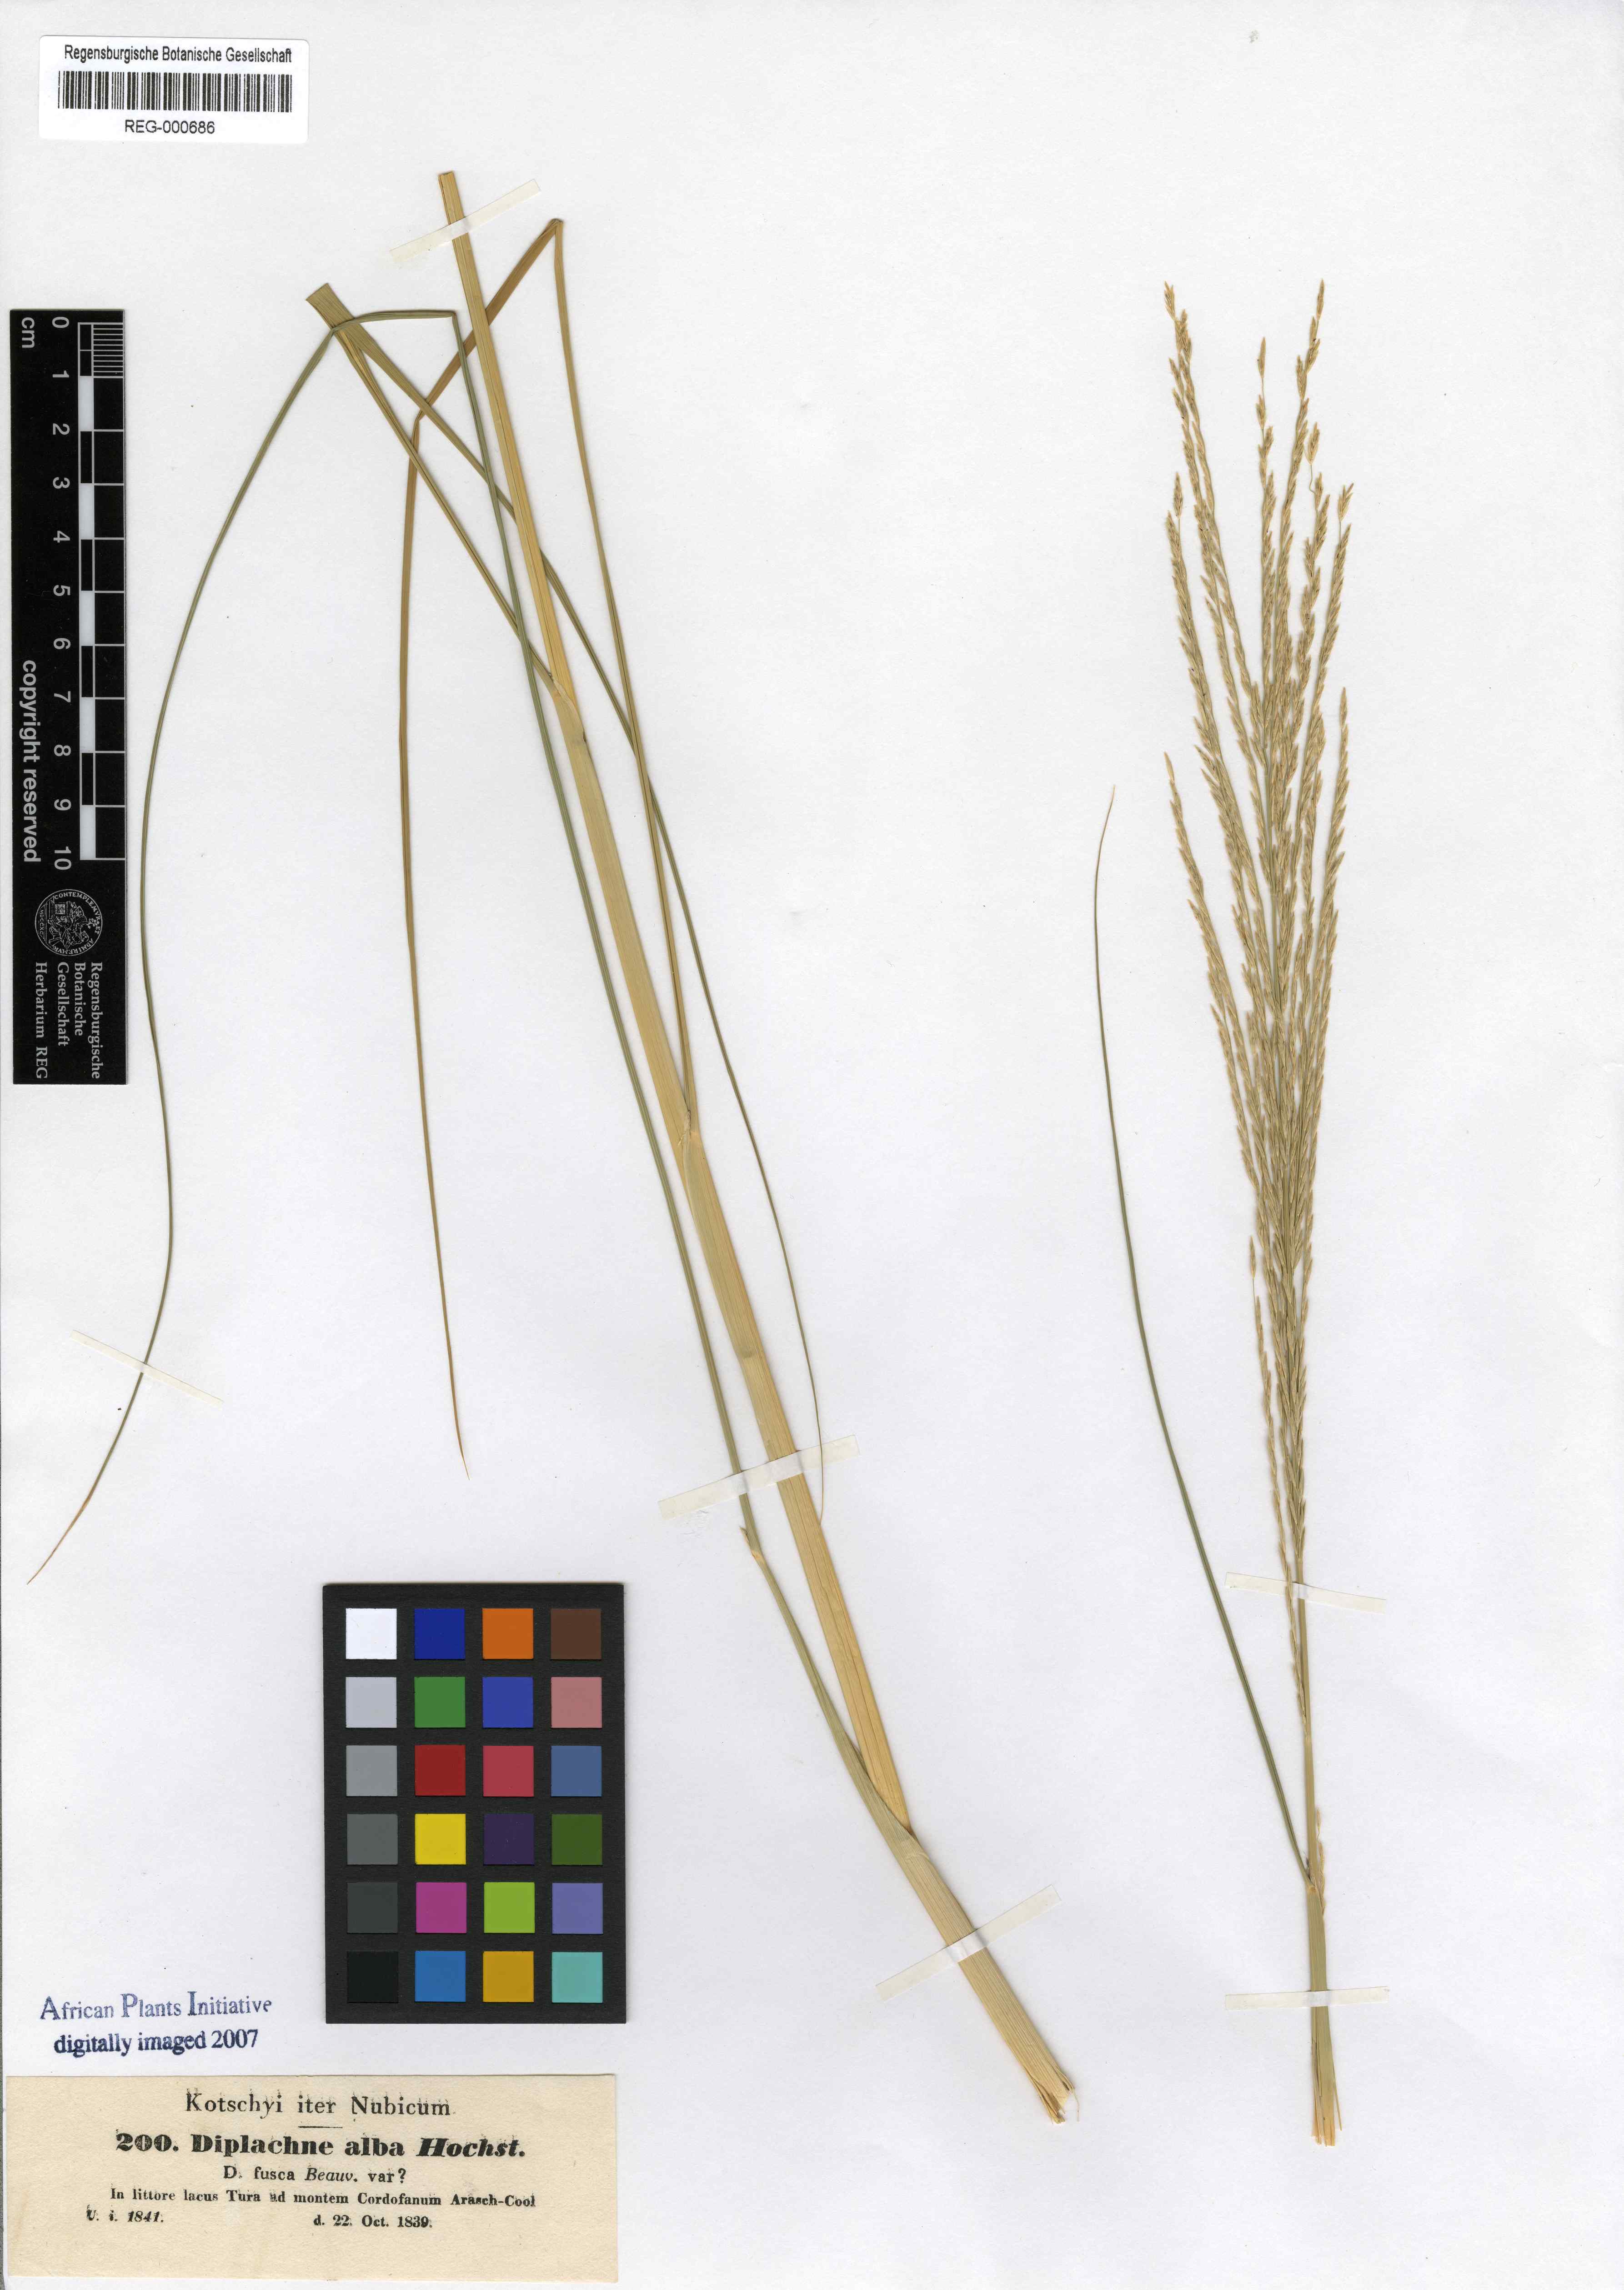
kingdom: Plantae
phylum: Tracheophyta
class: Liliopsida
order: Poales
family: Poaceae
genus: Diplachne
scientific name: Diplachne alba
